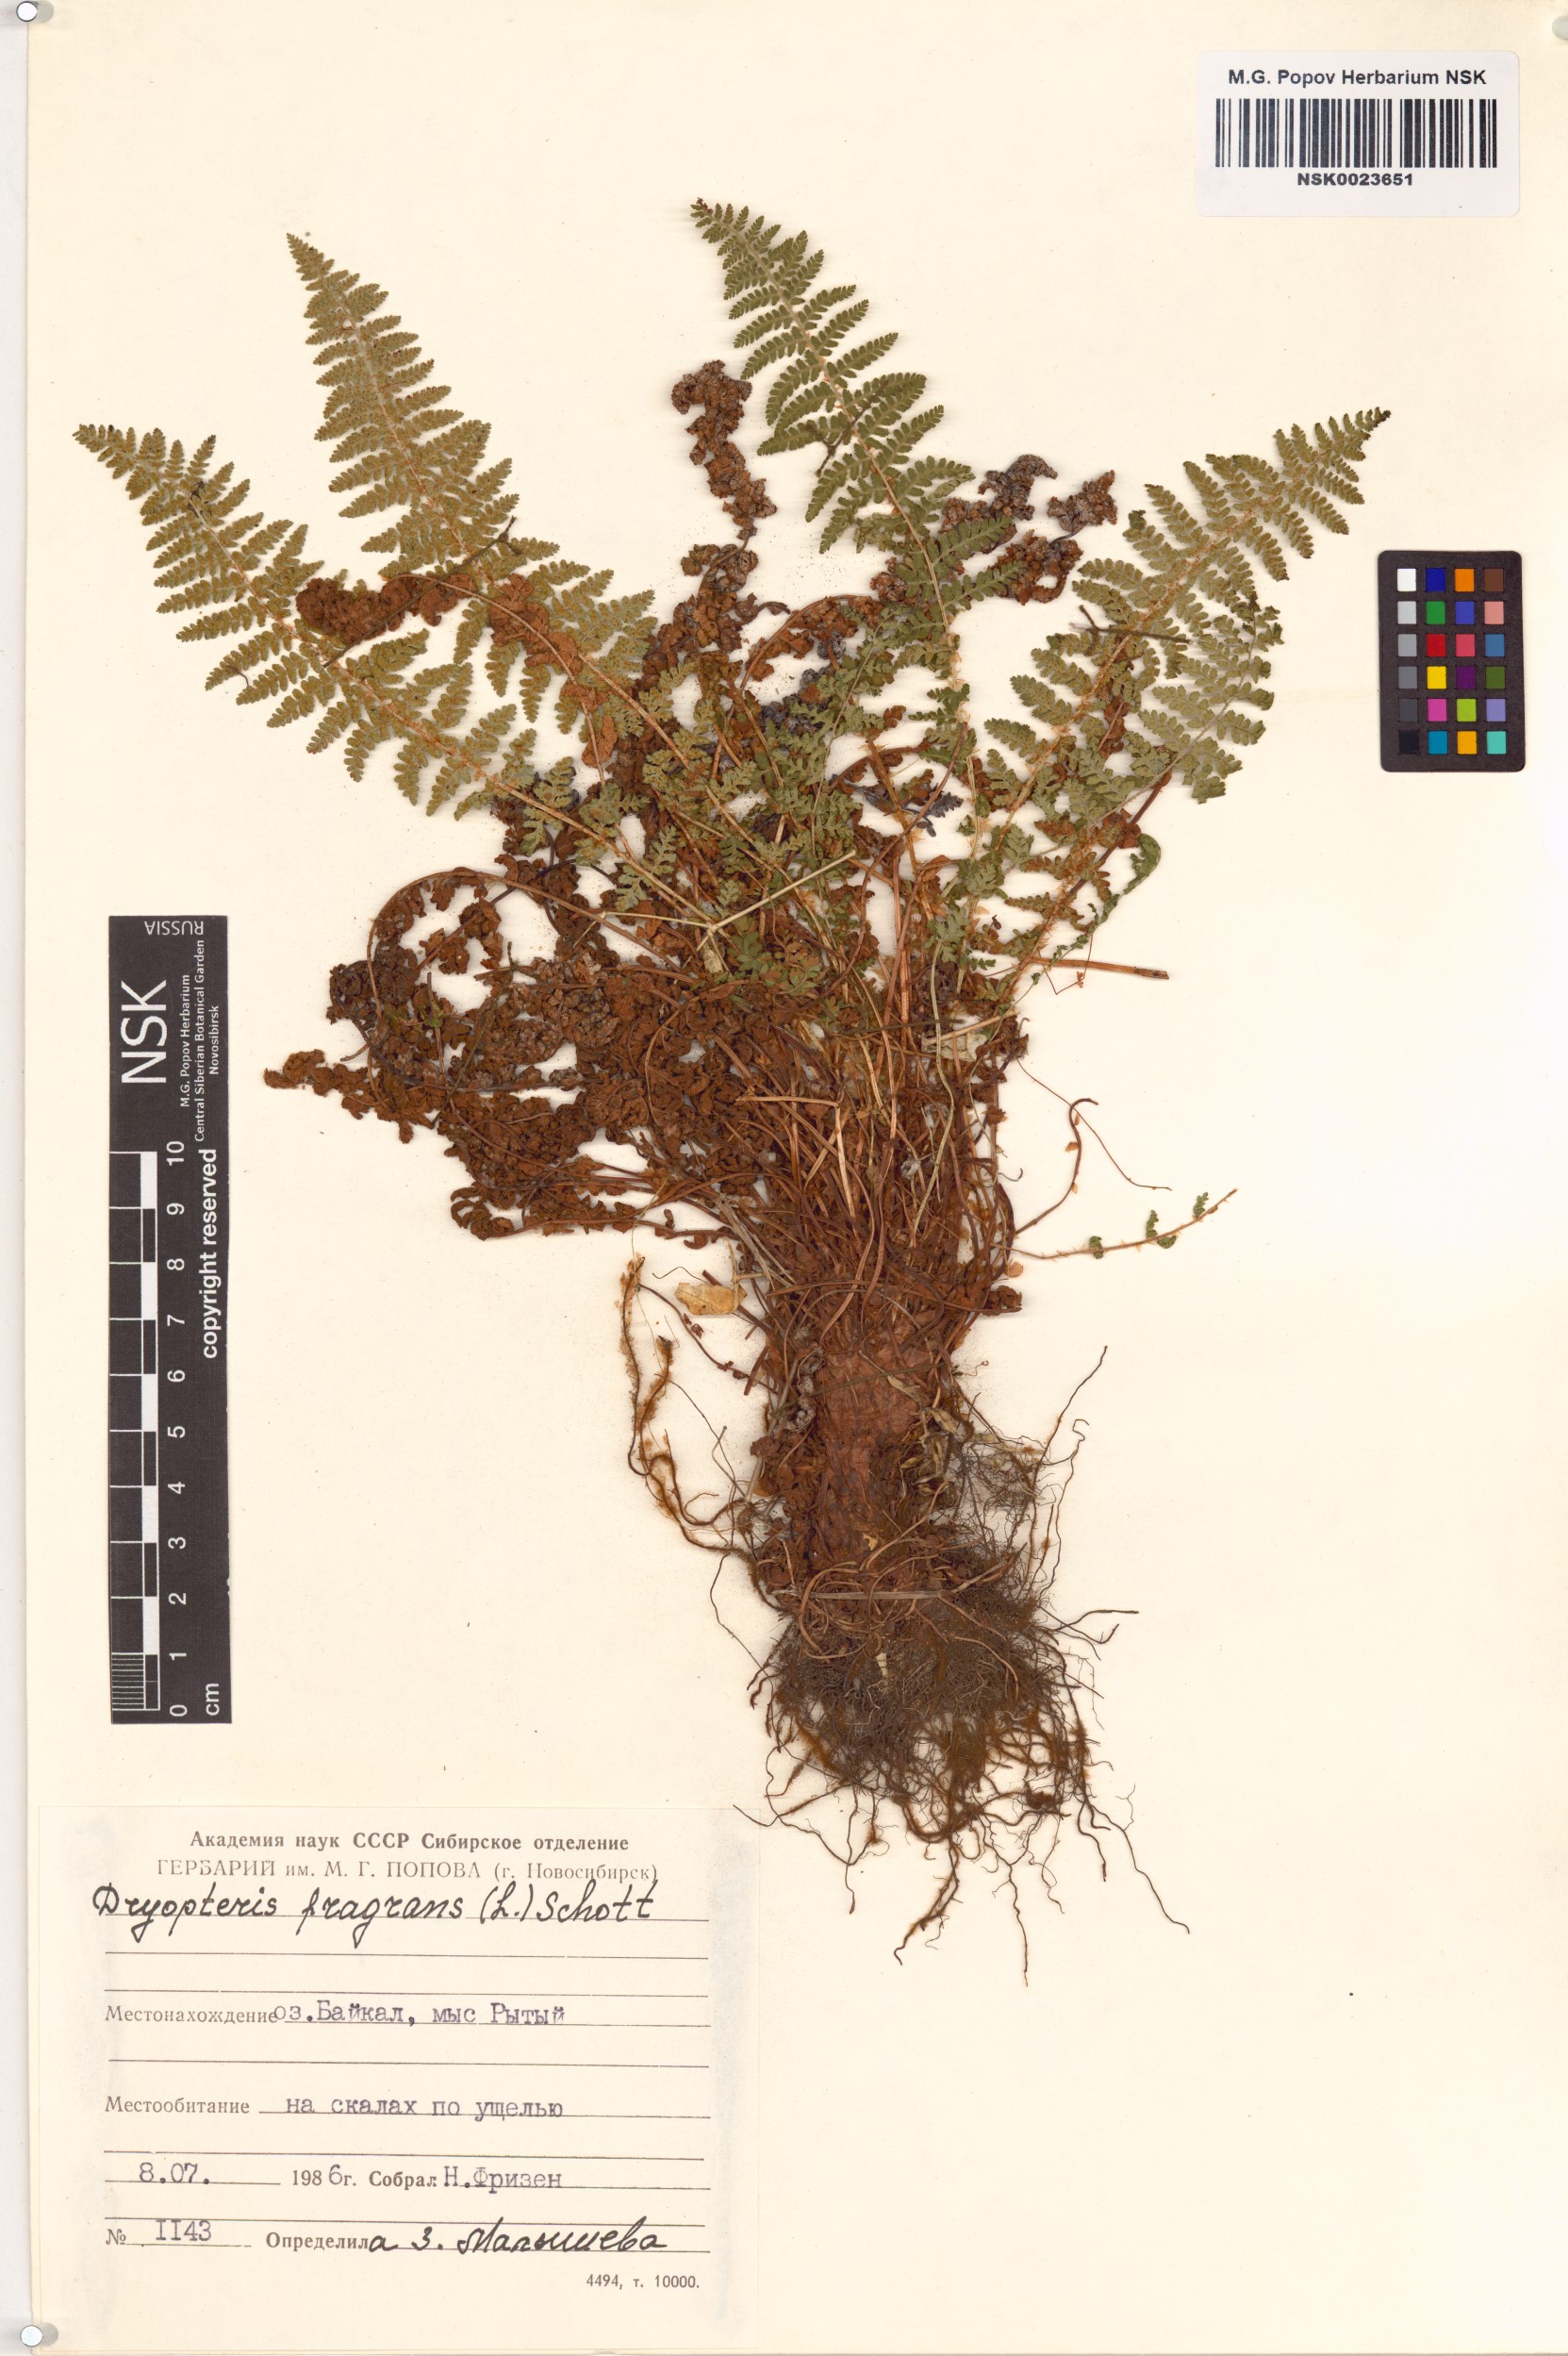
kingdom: Plantae
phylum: Tracheophyta
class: Polypodiopsida
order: Polypodiales
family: Dryopteridaceae
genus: Dryopteris
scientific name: Dryopteris fragrans
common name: Fragrant wood fern
